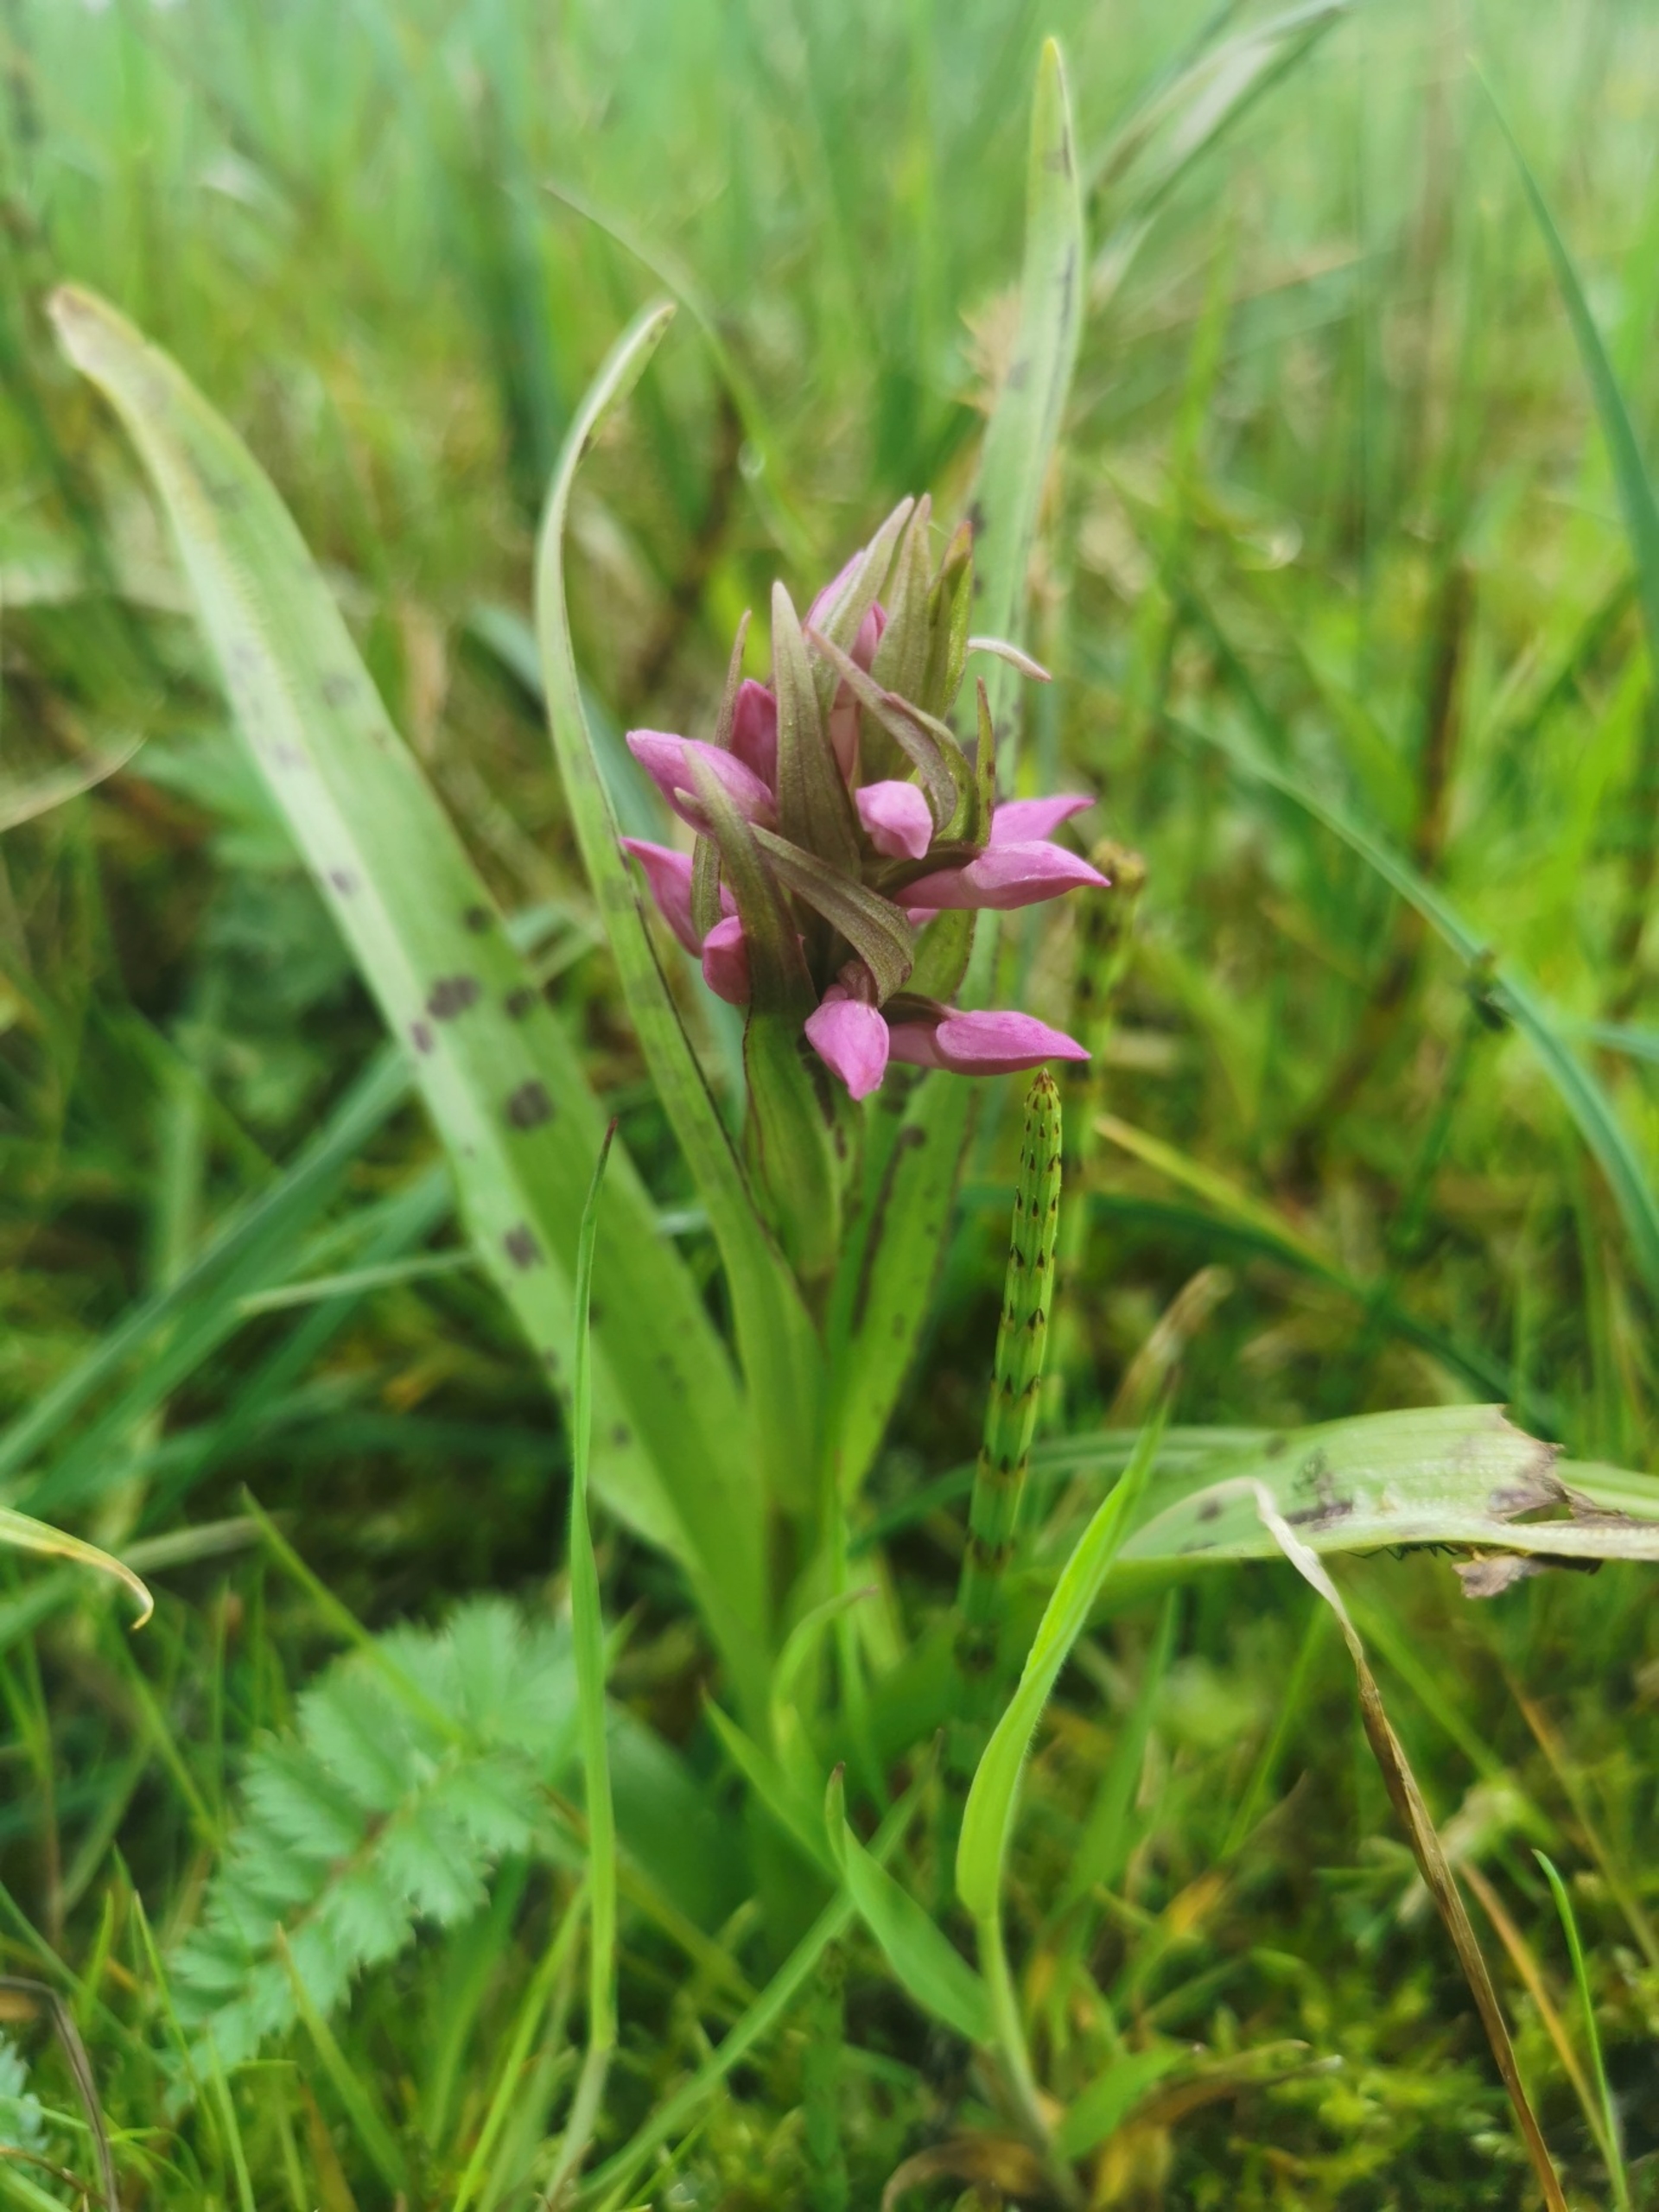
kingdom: Plantae
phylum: Tracheophyta
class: Liliopsida
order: Asparagales
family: Orchidaceae
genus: Dactylorhiza
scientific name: Dactylorhiza majalis
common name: Maj-gøgeurt
